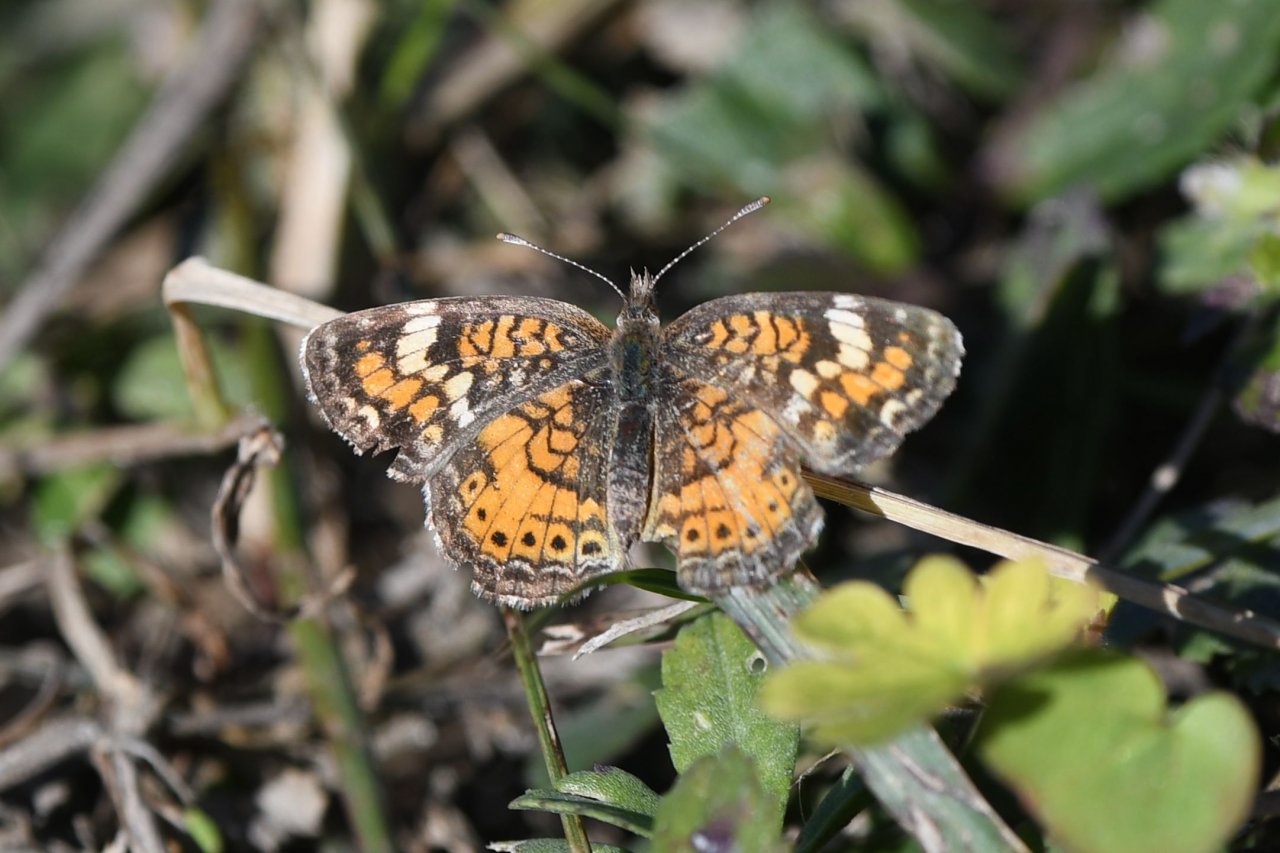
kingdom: Animalia
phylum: Arthropoda
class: Insecta
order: Lepidoptera
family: Nymphalidae
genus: Phyciodes
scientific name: Phyciodes phaon
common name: Phaon Crescent
